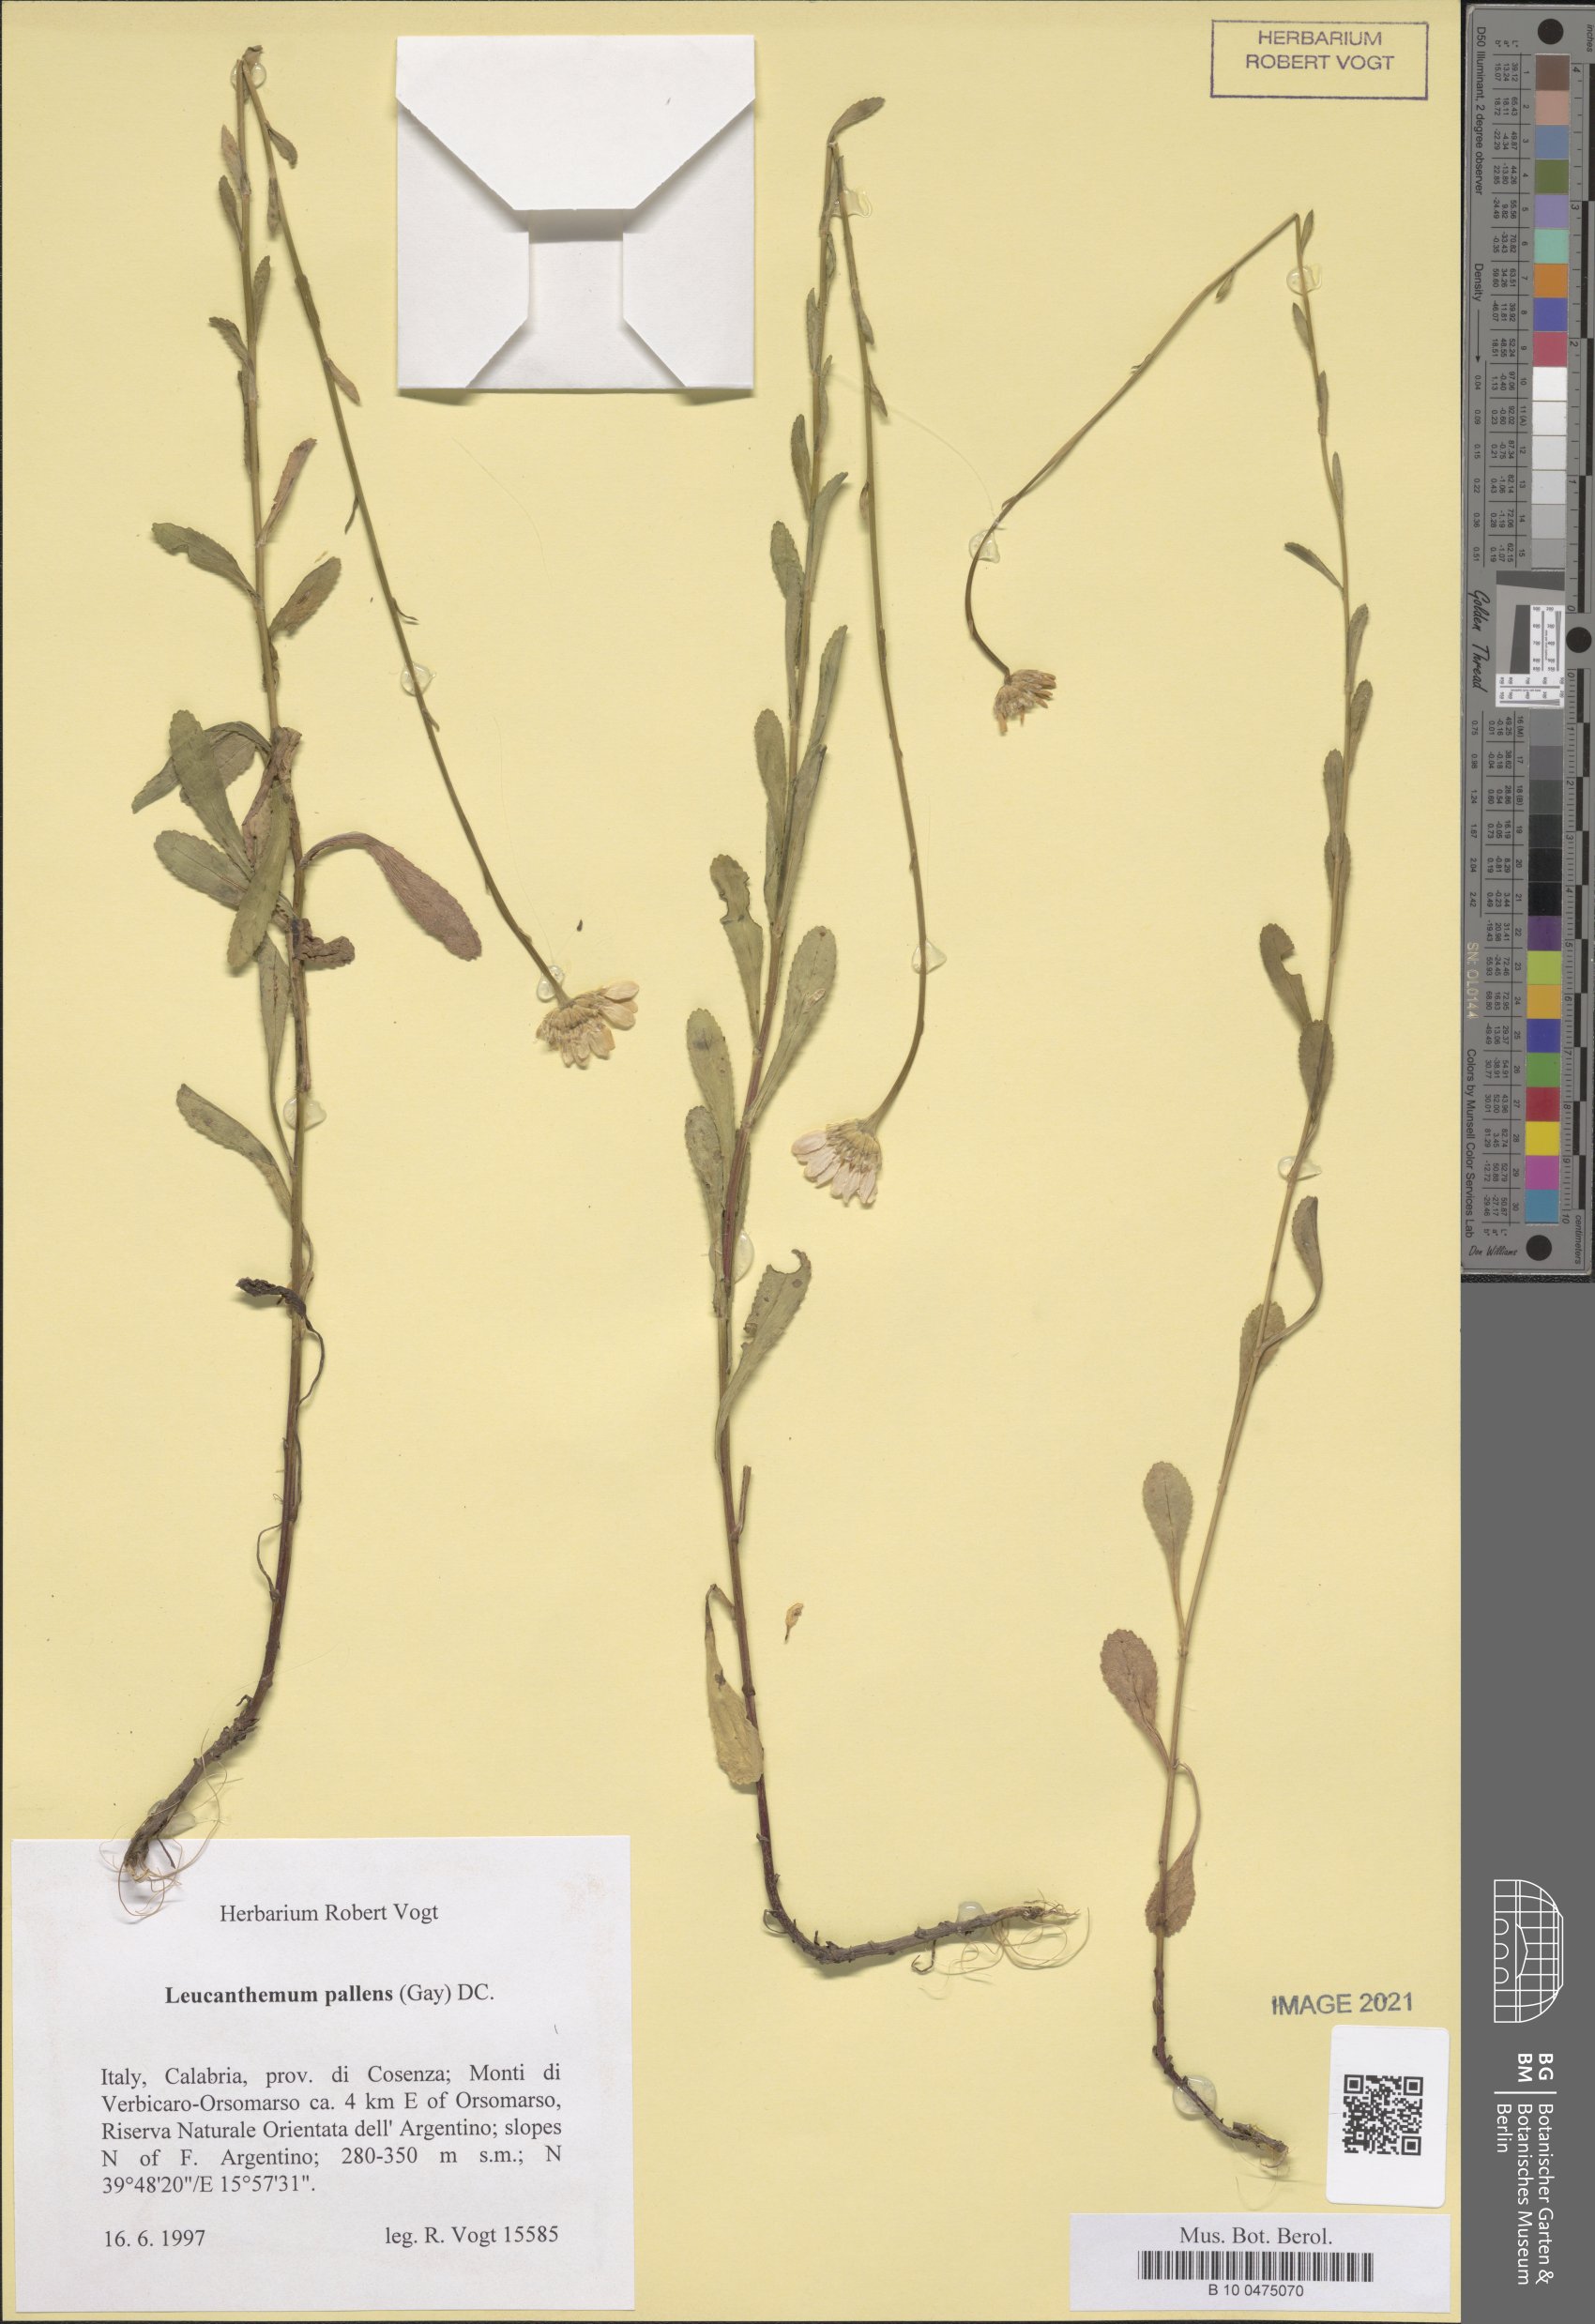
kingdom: Plantae
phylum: Tracheophyta
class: Magnoliopsida
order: Asterales
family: Asteraceae
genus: Leucanthemum
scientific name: Leucanthemum ircutianum
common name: Daisy
